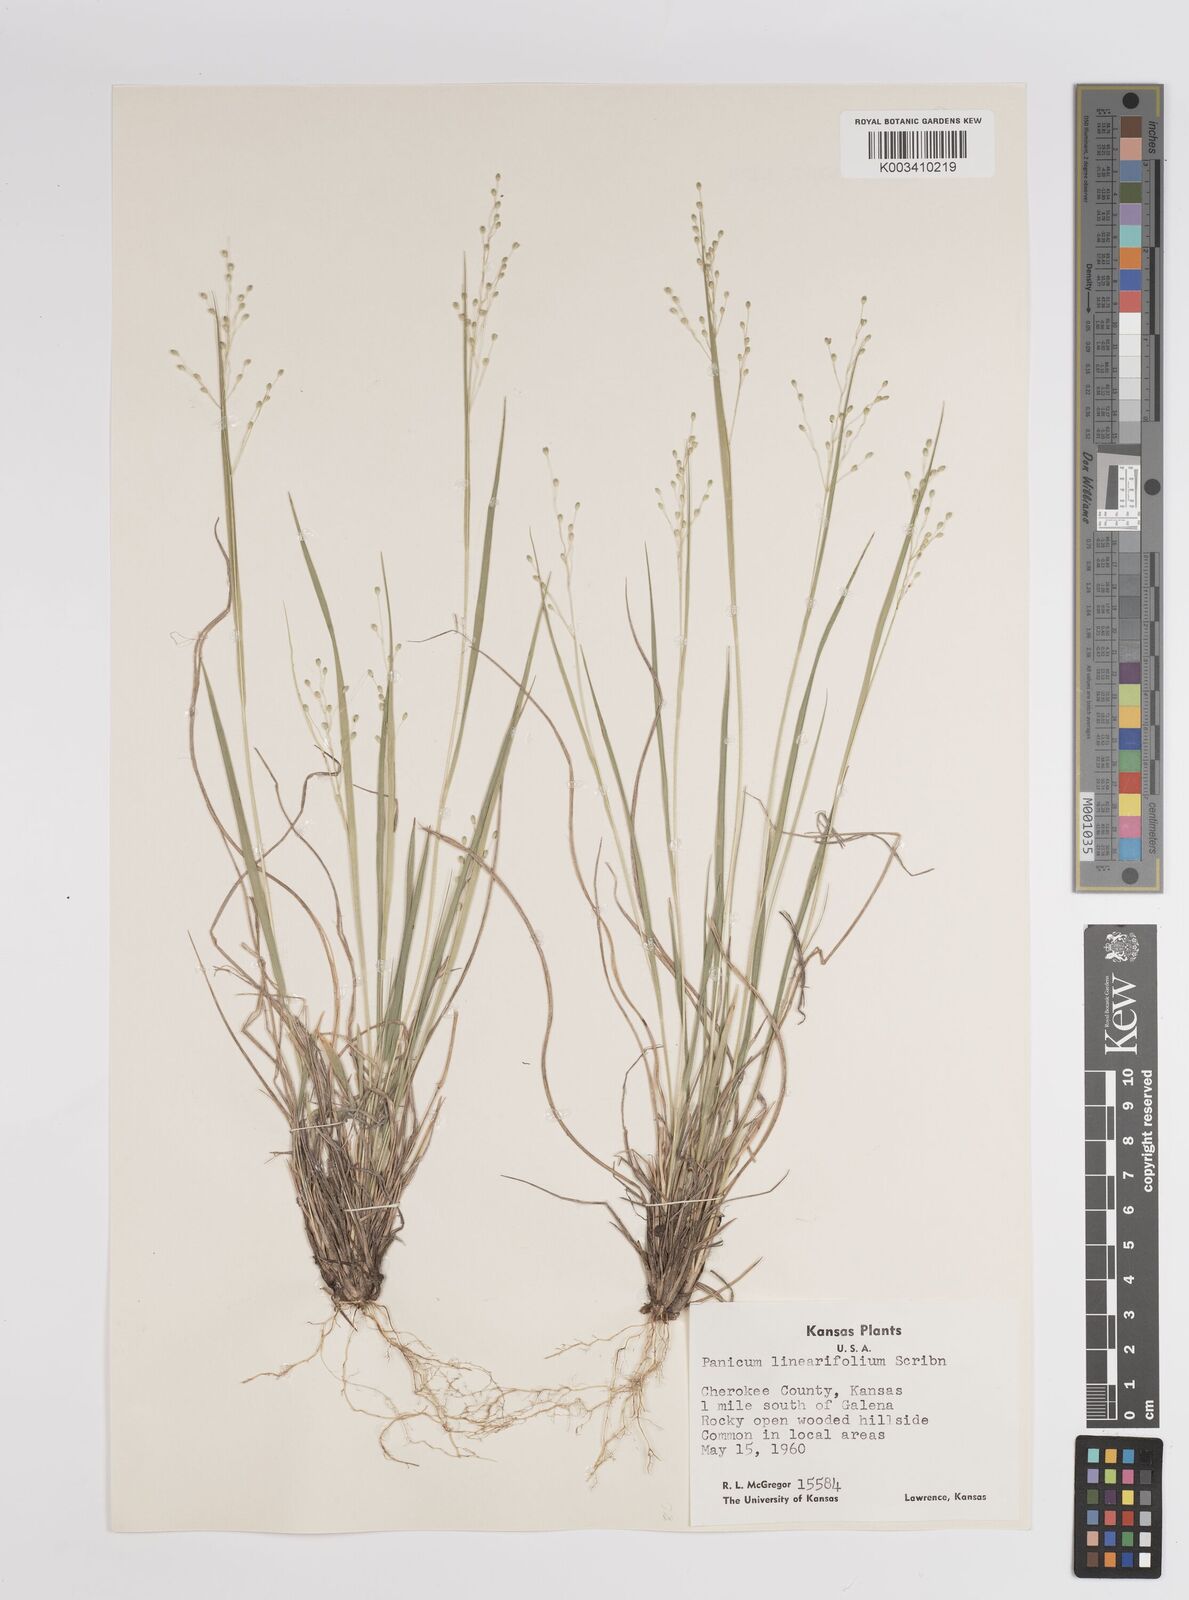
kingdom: Plantae
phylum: Tracheophyta
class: Liliopsida
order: Poales
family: Poaceae
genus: Dichanthelium
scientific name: Dichanthelium linearifolium
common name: Linear-leaved panicgrass
